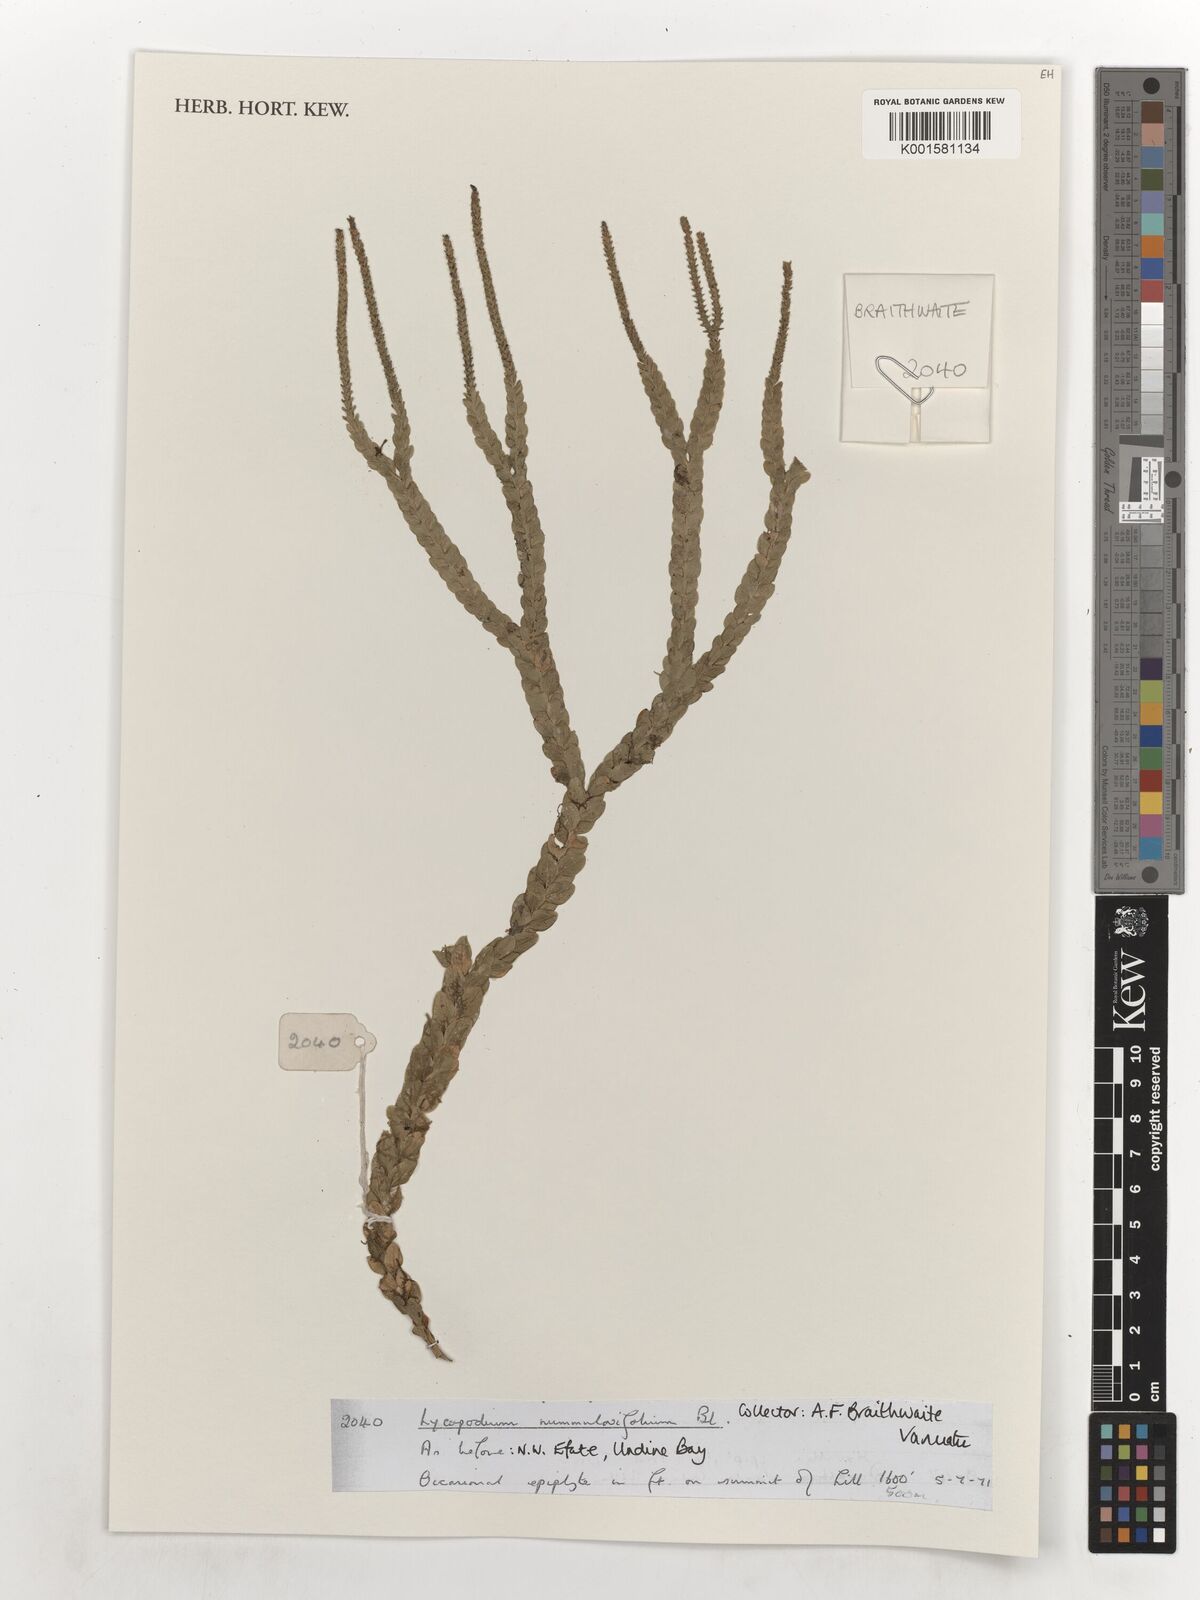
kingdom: Plantae
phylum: Tracheophyta
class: Lycopodiopsida
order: Lycopodiales
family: Lycopodiaceae
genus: Phlegmariurus
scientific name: Phlegmariurus nummulariifolius
